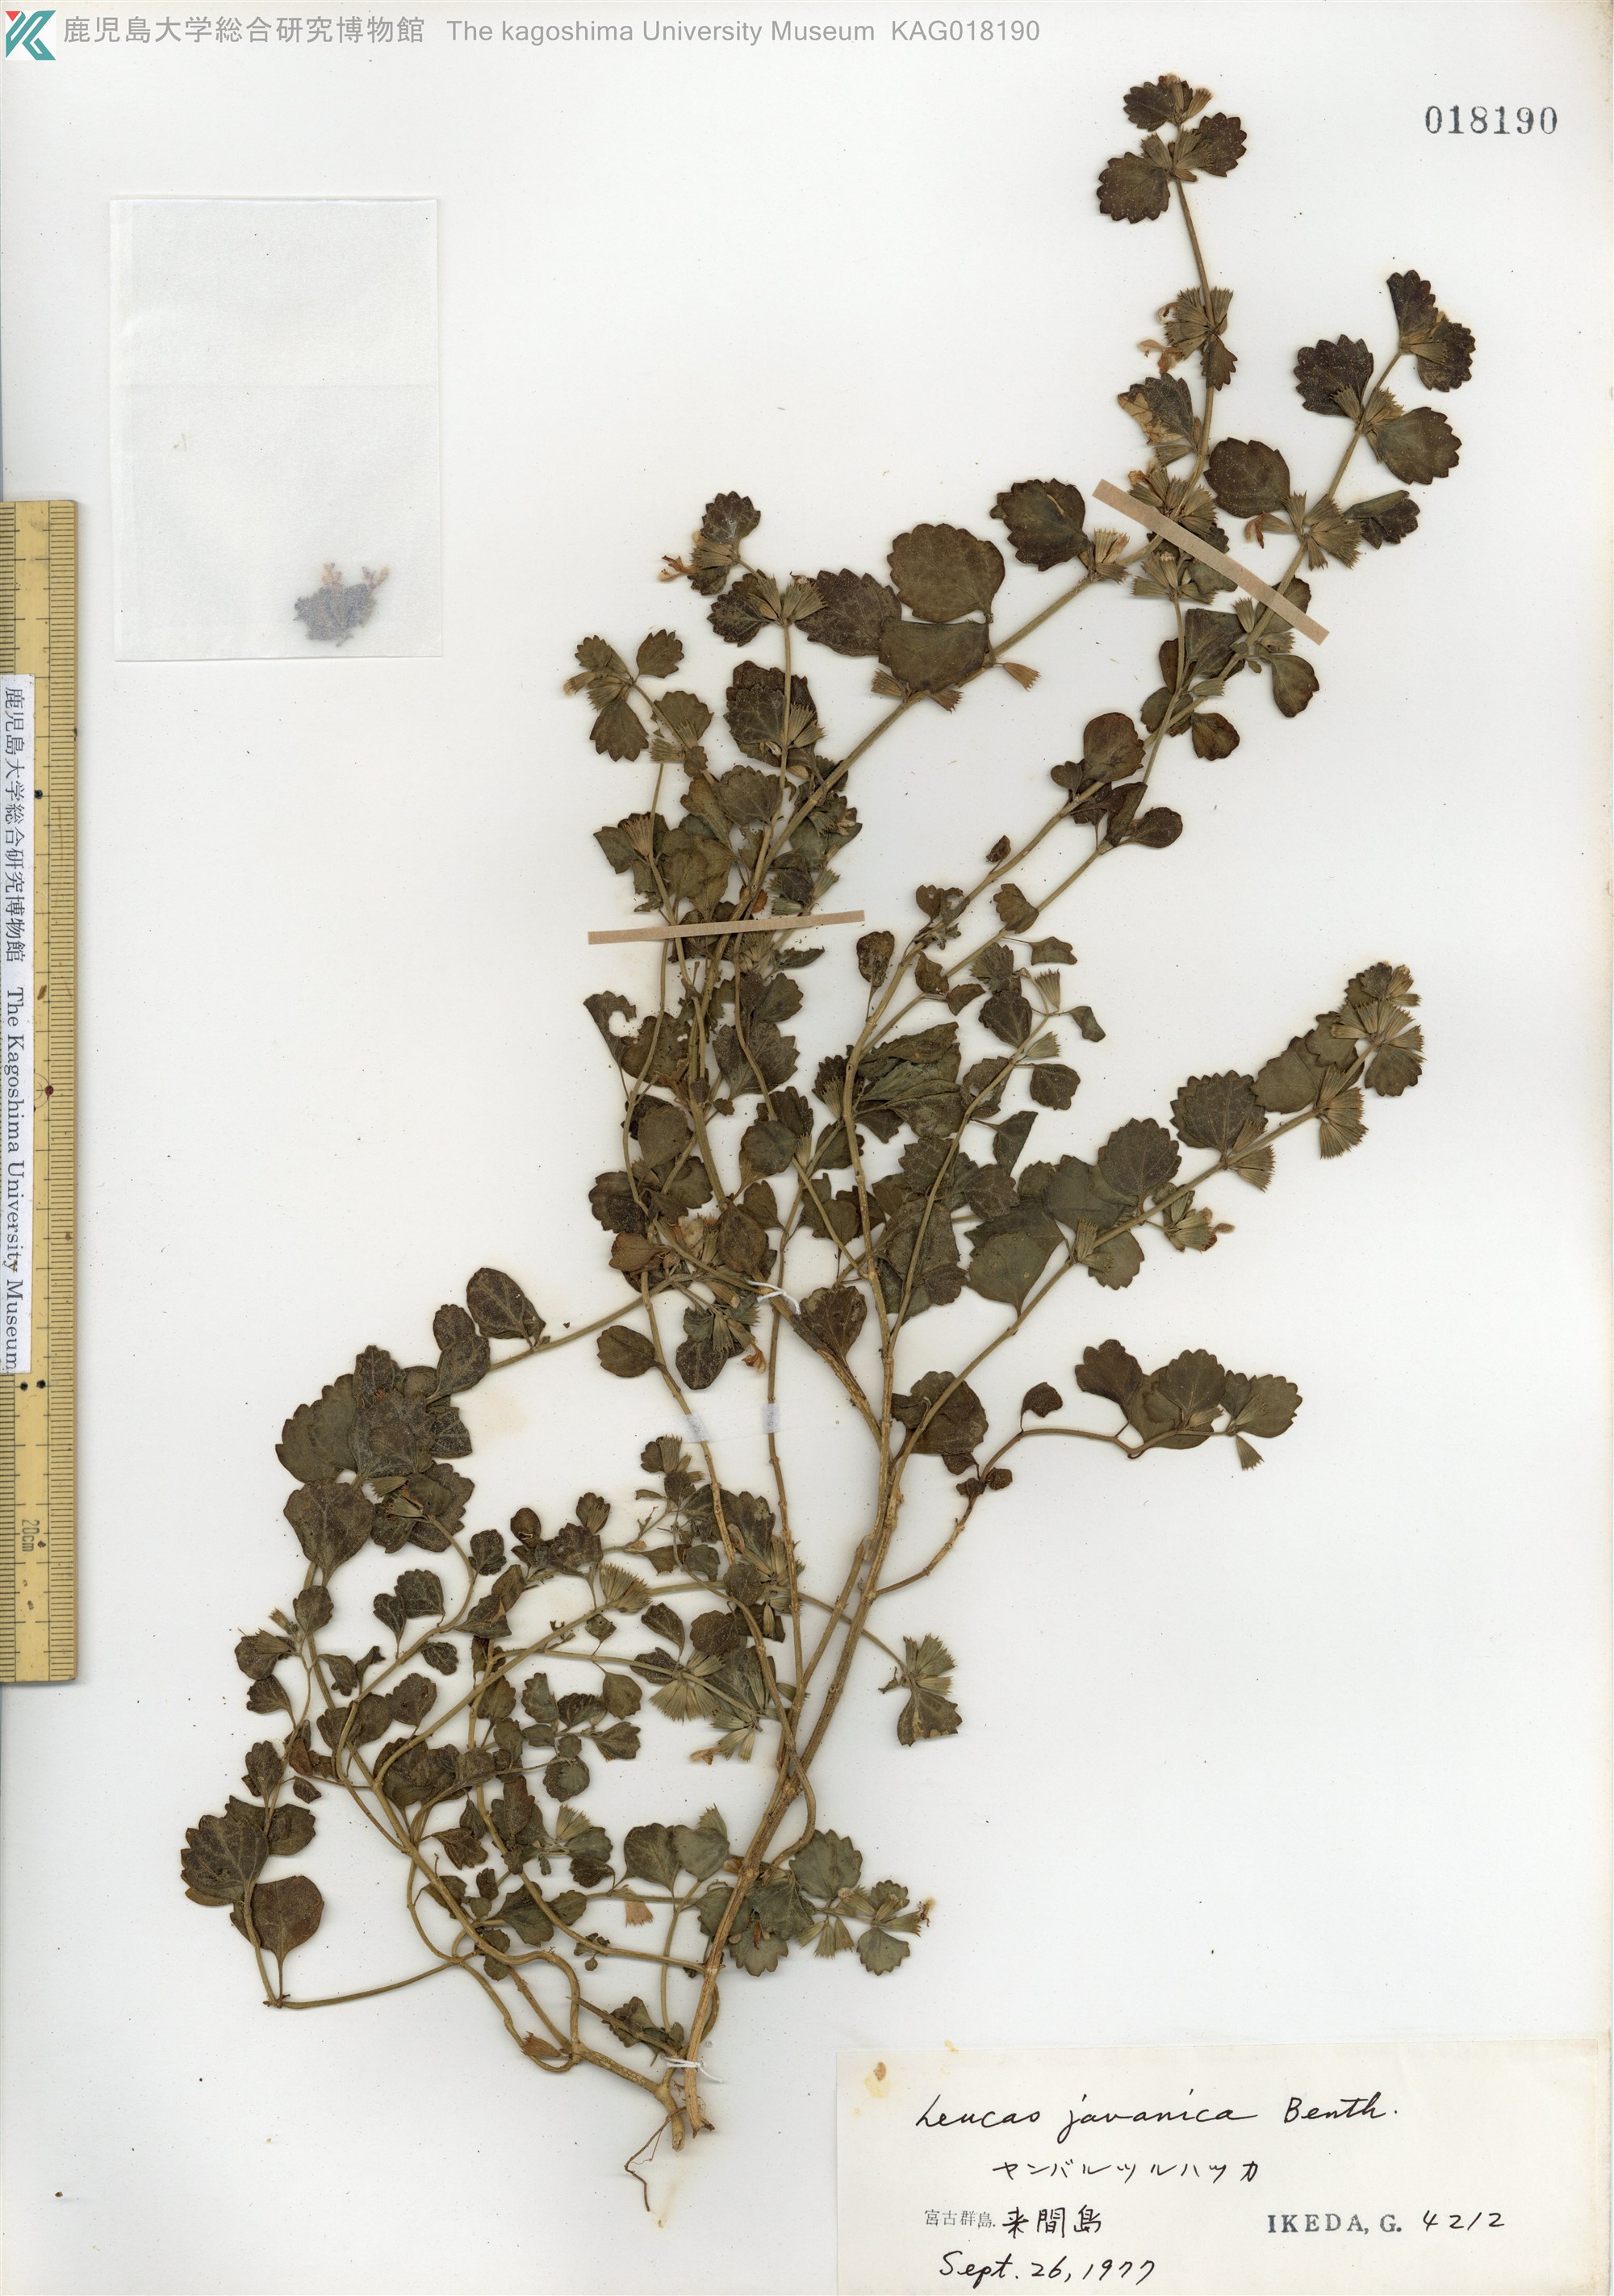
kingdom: Plantae
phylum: Tracheophyta
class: Magnoliopsida
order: Lamiales
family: Lamiaceae
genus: Leucas
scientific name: Leucas chinensis
